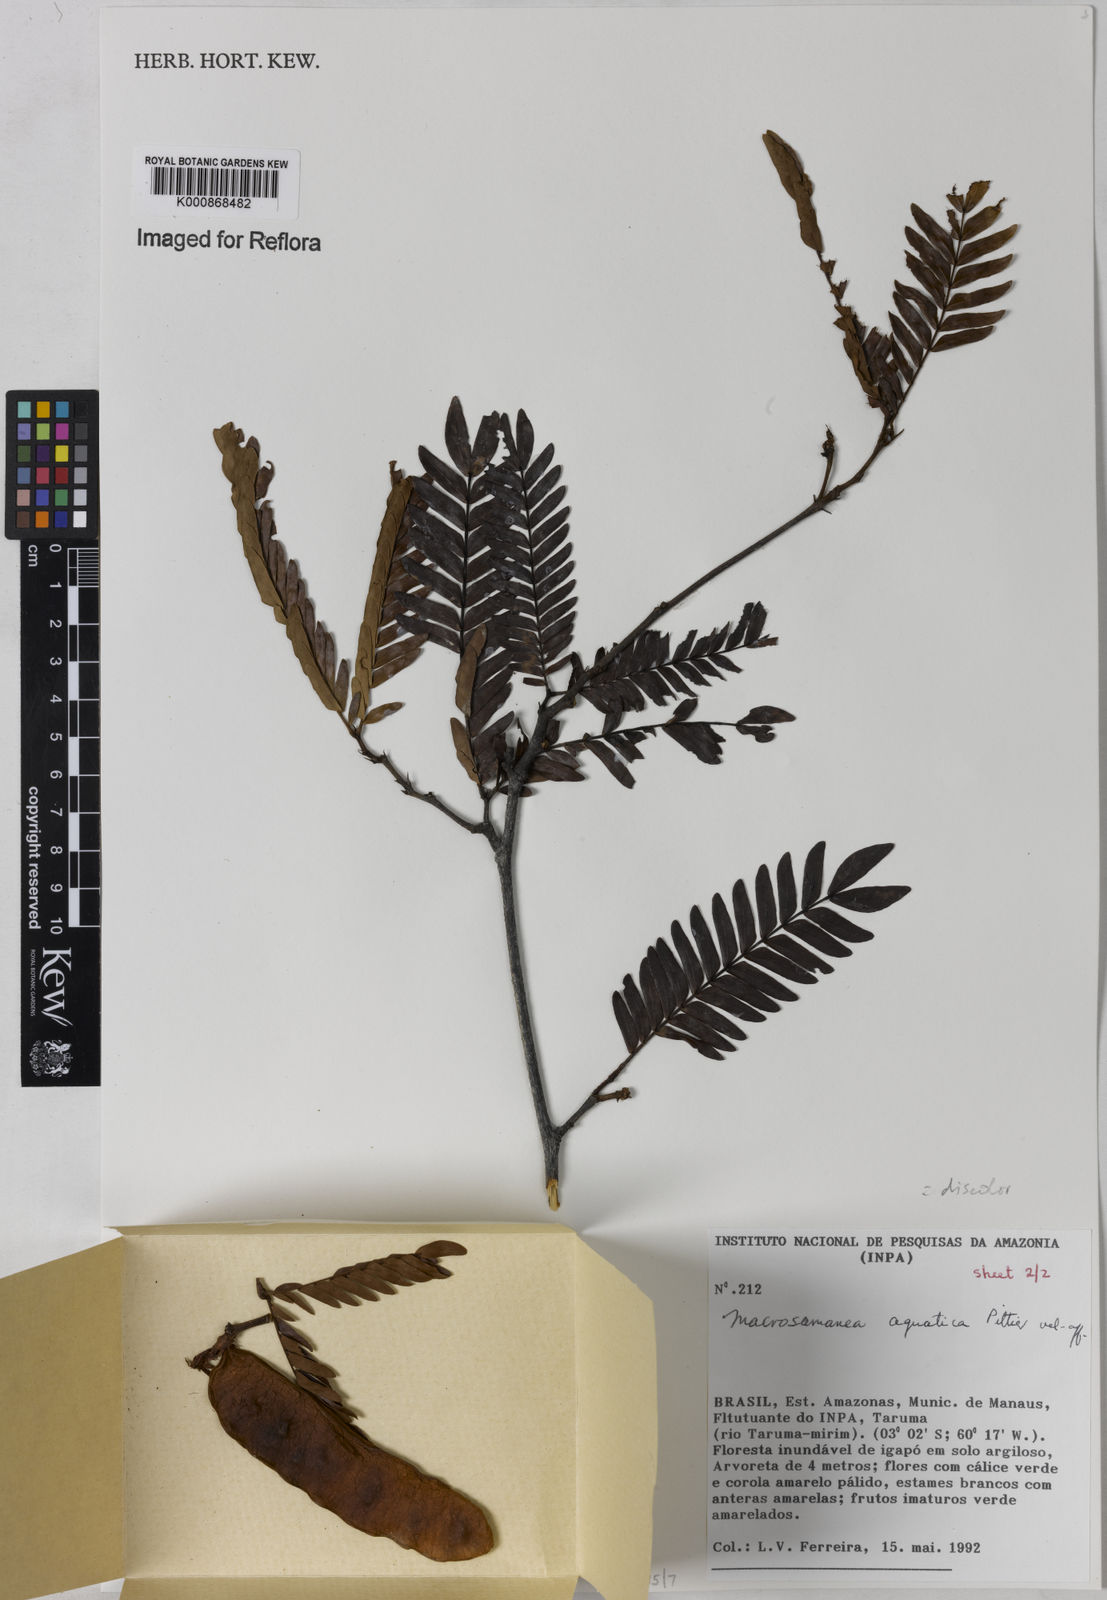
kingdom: Plantae
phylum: Tracheophyta
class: Magnoliopsida
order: Fabales
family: Fabaceae
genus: Macrosamanea
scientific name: Macrosamanea
